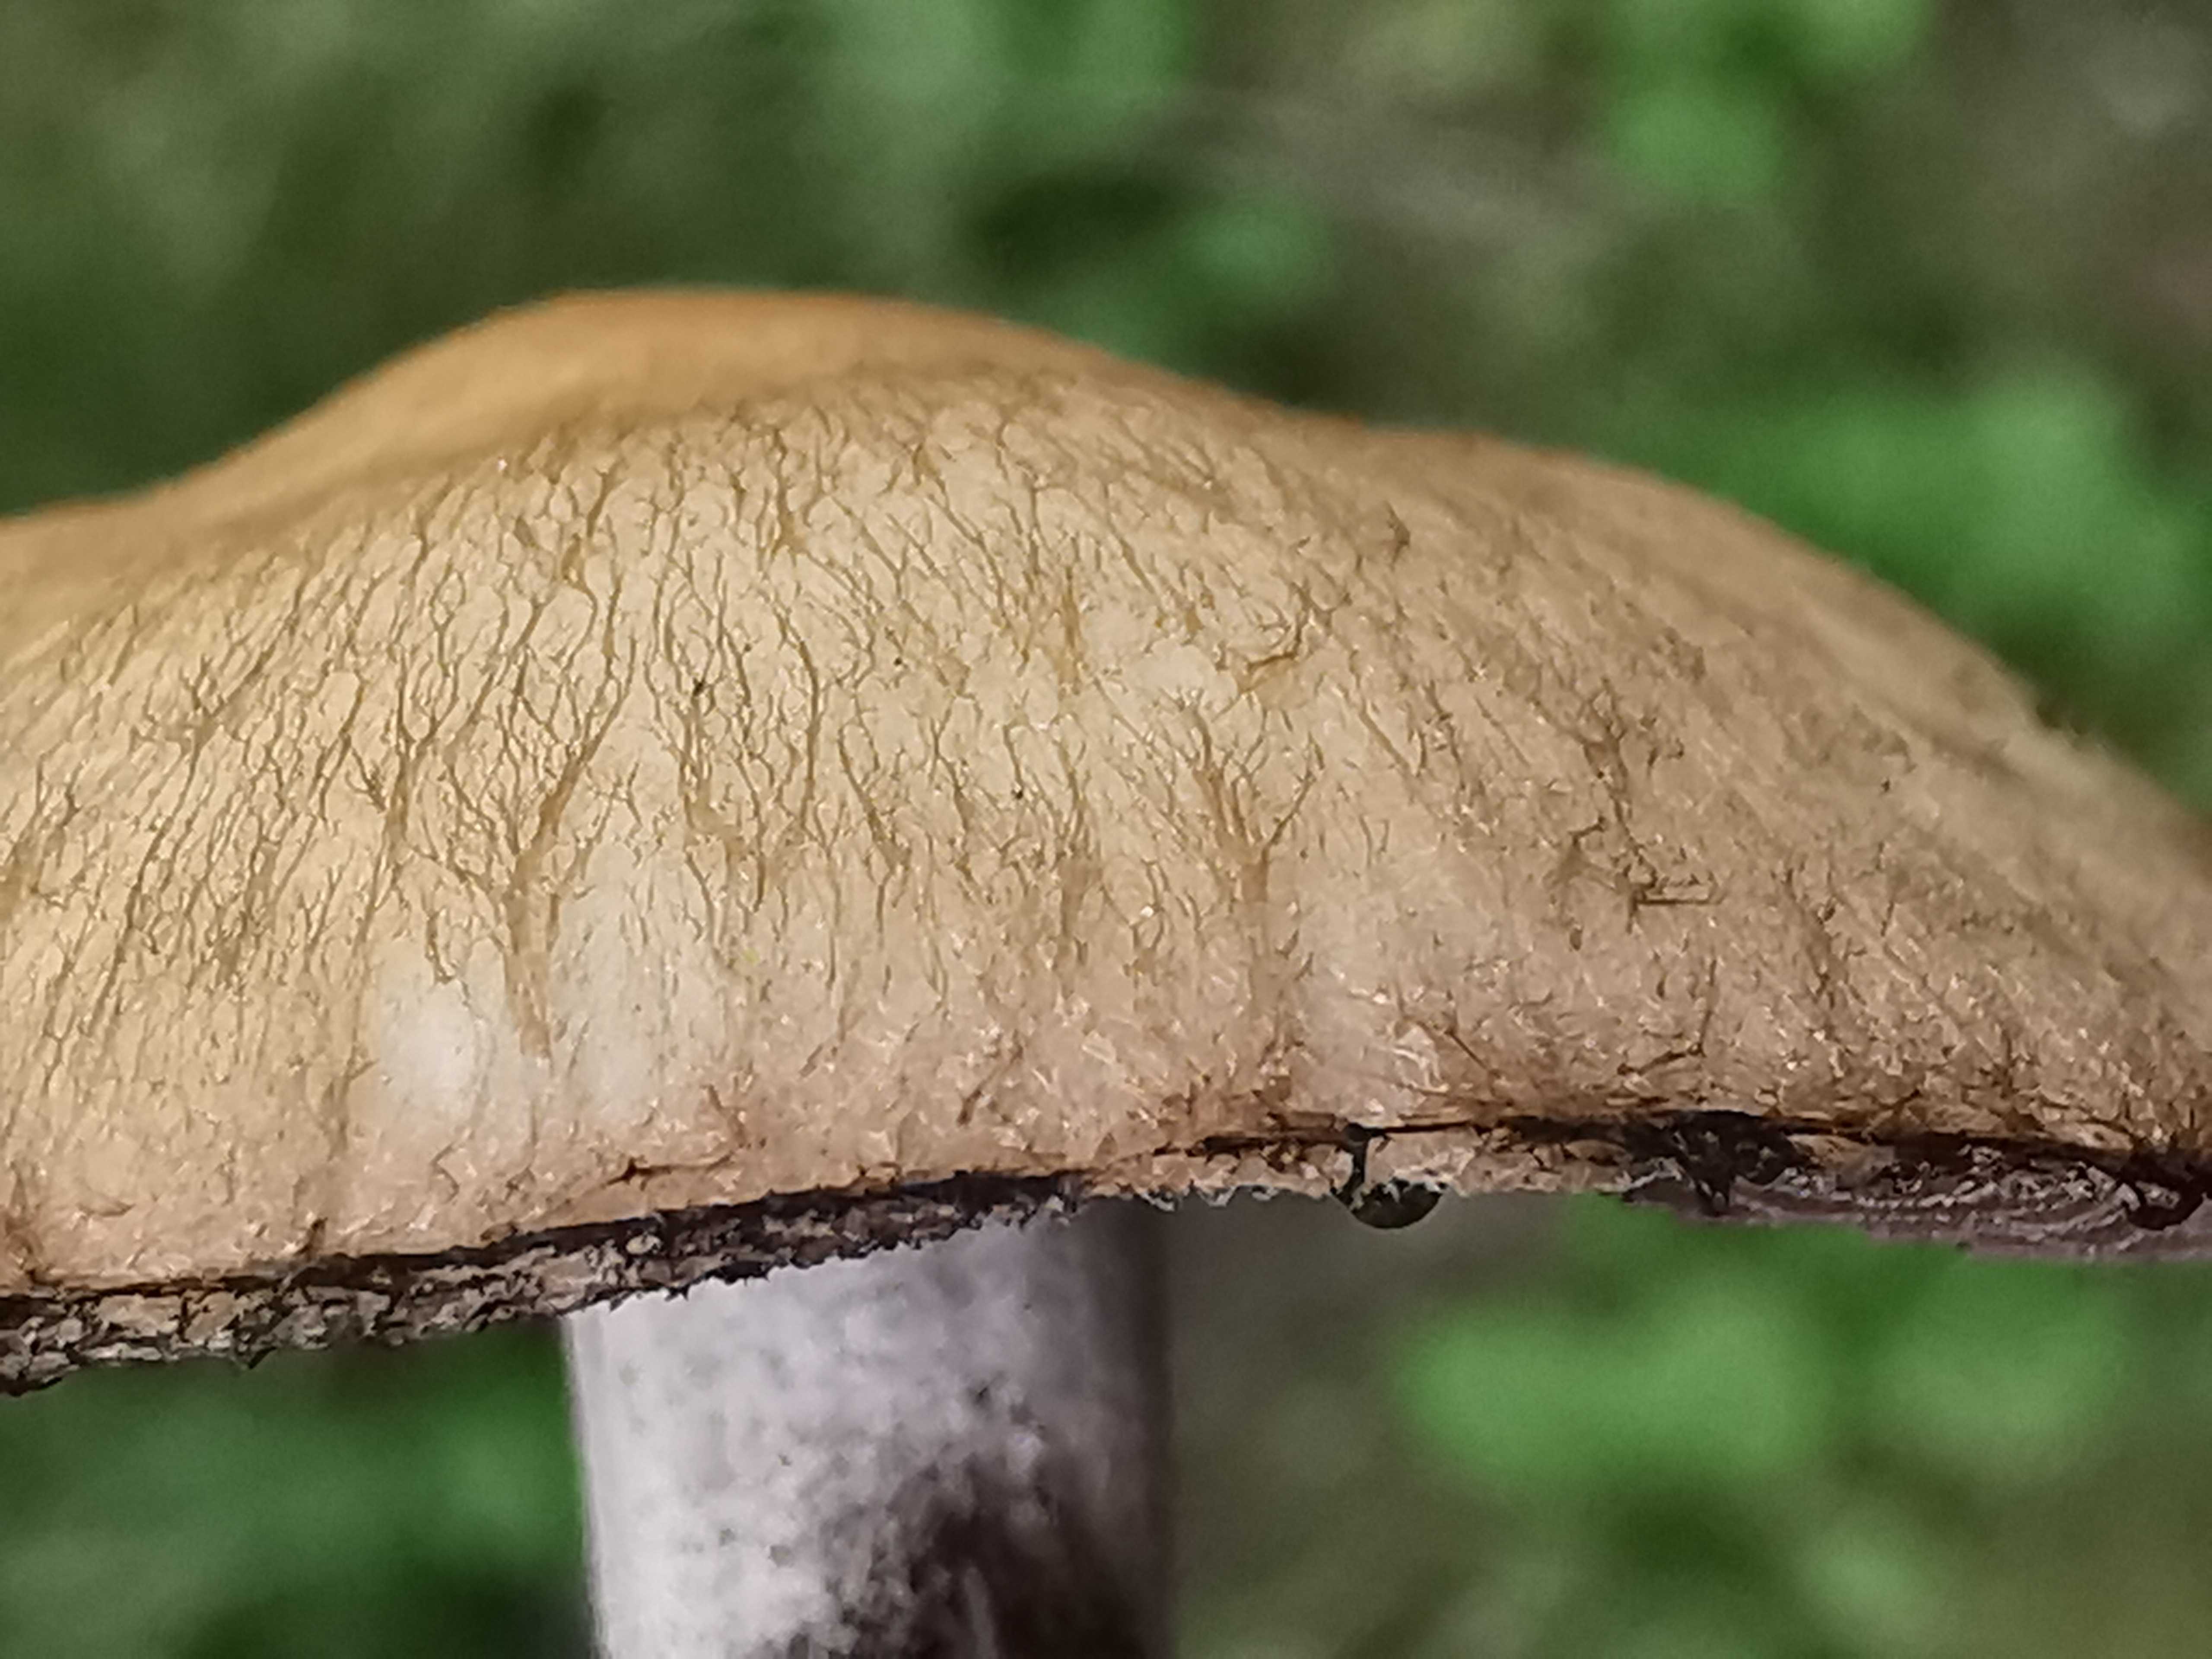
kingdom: Fungi
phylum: Basidiomycota
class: Agaricomycetes
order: Agaricales
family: Psathyrellaceae
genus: Lacrymaria
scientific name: Lacrymaria lacrymabunda
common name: grædende mørkhat
